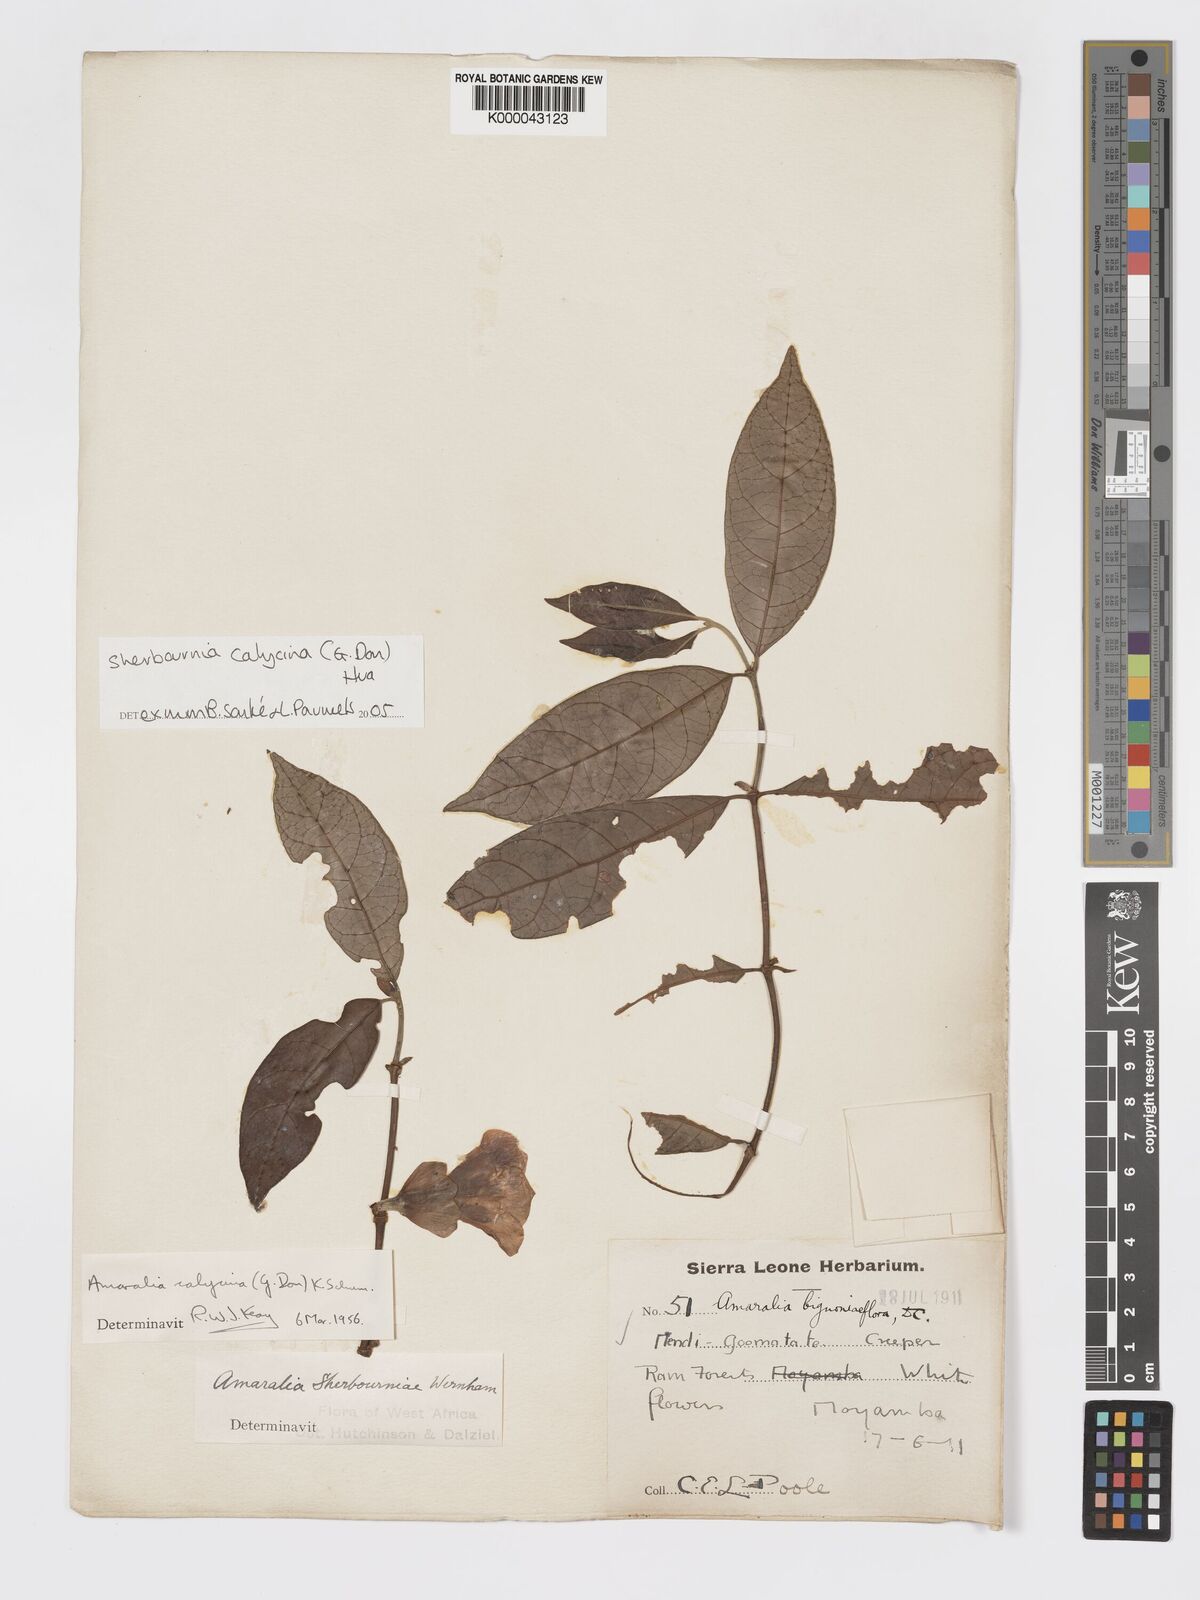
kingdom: Plantae
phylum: Tracheophyta
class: Magnoliopsida
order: Gentianales
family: Rubiaceae
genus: Sherbournia
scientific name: Sherbournia calycina
